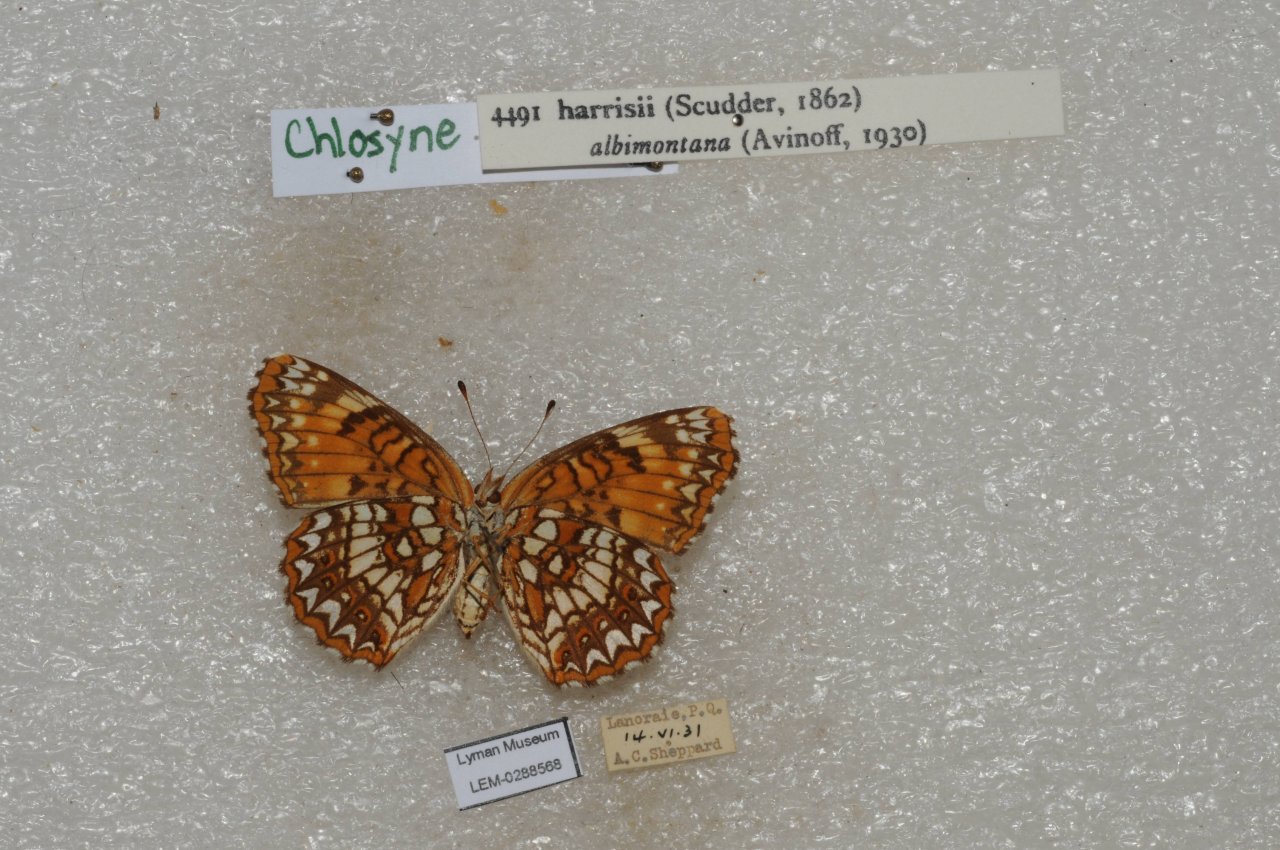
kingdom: Animalia
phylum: Arthropoda
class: Insecta
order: Lepidoptera
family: Nymphalidae
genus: Chlosyne
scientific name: Chlosyne harrisii
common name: Harris's Checkerspot
